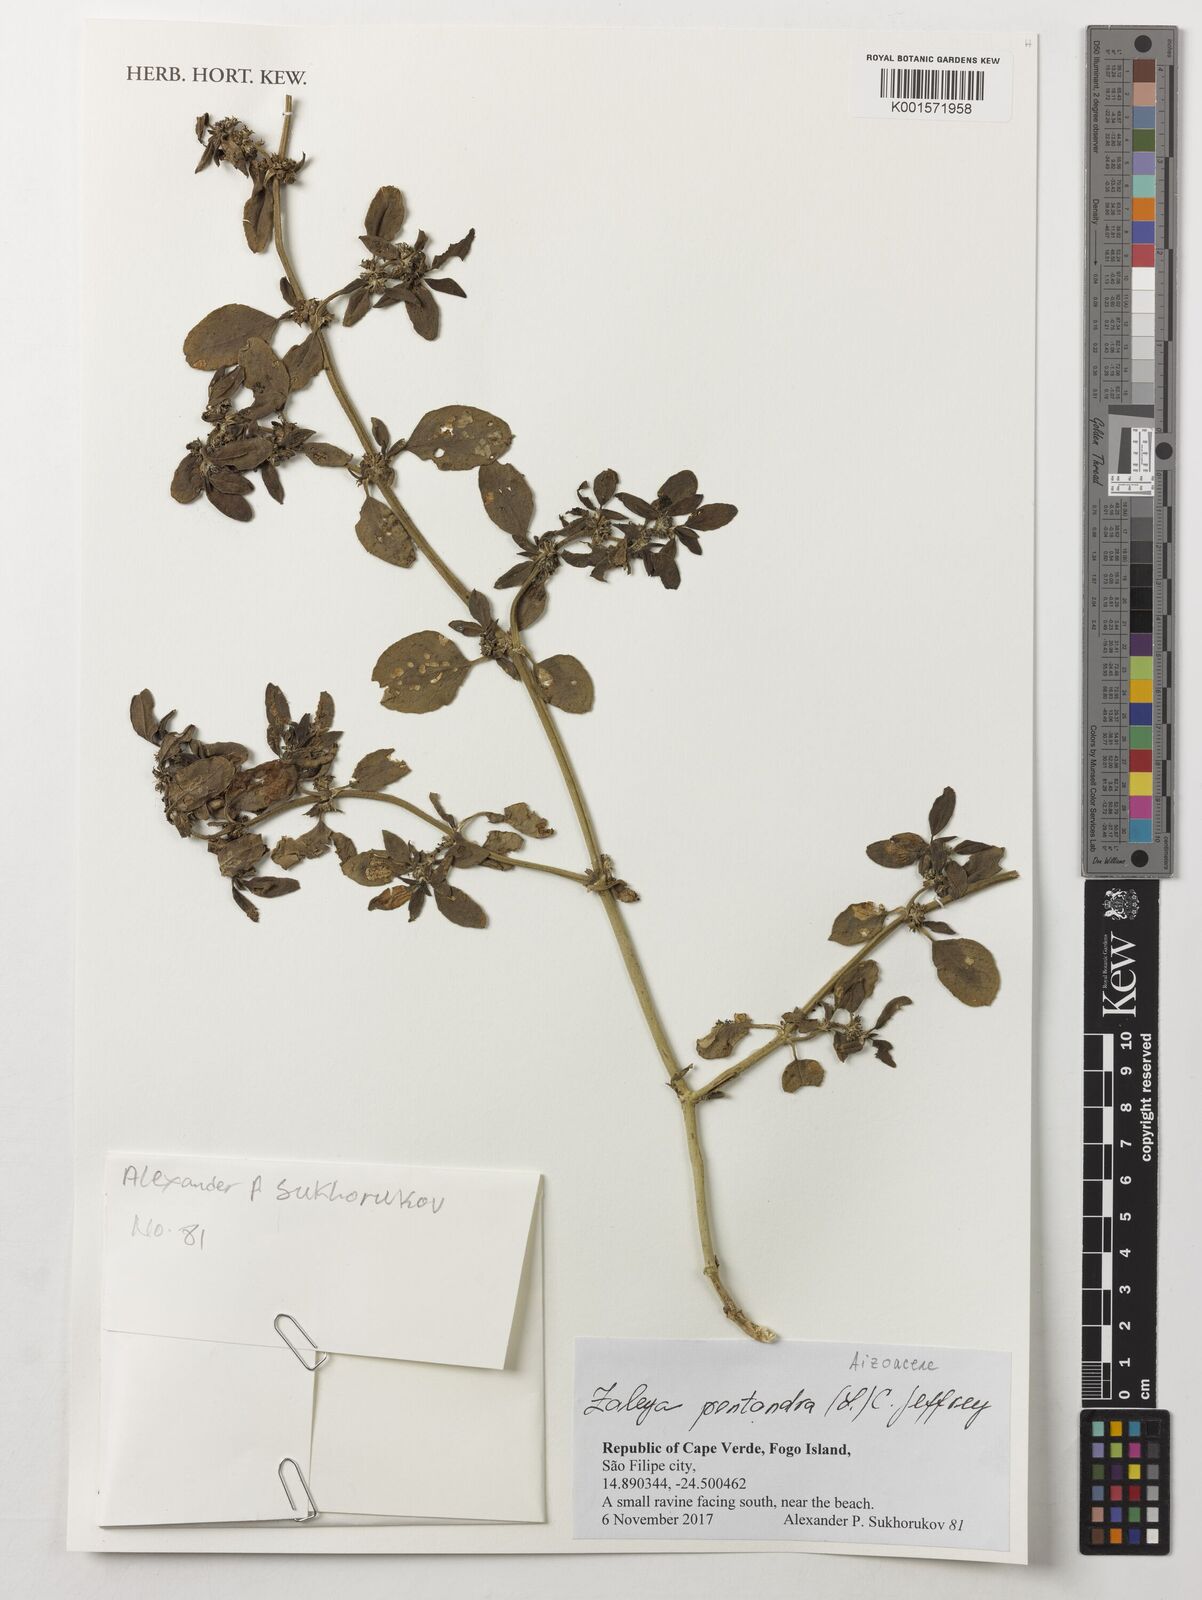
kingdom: Plantae
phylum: Tracheophyta
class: Magnoliopsida
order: Caryophyllales
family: Aizoaceae
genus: Zaleya
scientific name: Zaleya pentandra
